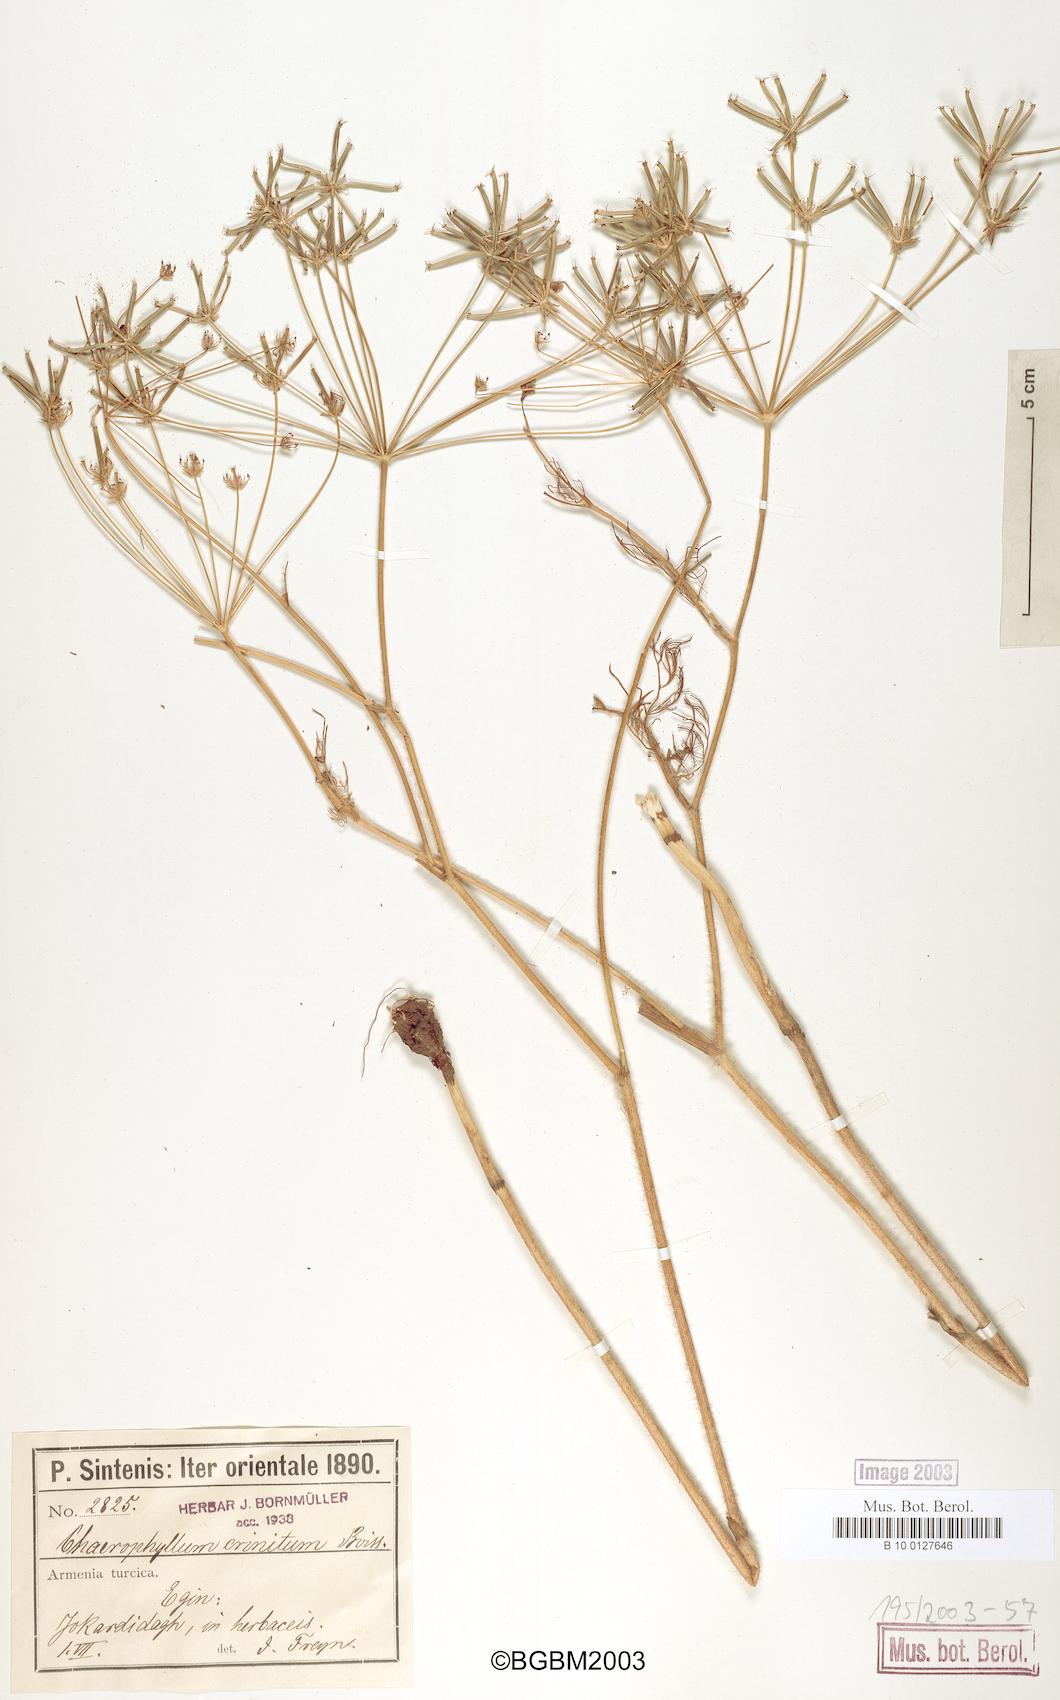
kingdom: Plantae
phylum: Tracheophyta
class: Magnoliopsida
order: Apiales
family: Apiaceae
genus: Chaerophyllum
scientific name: Chaerophyllum crinitum
